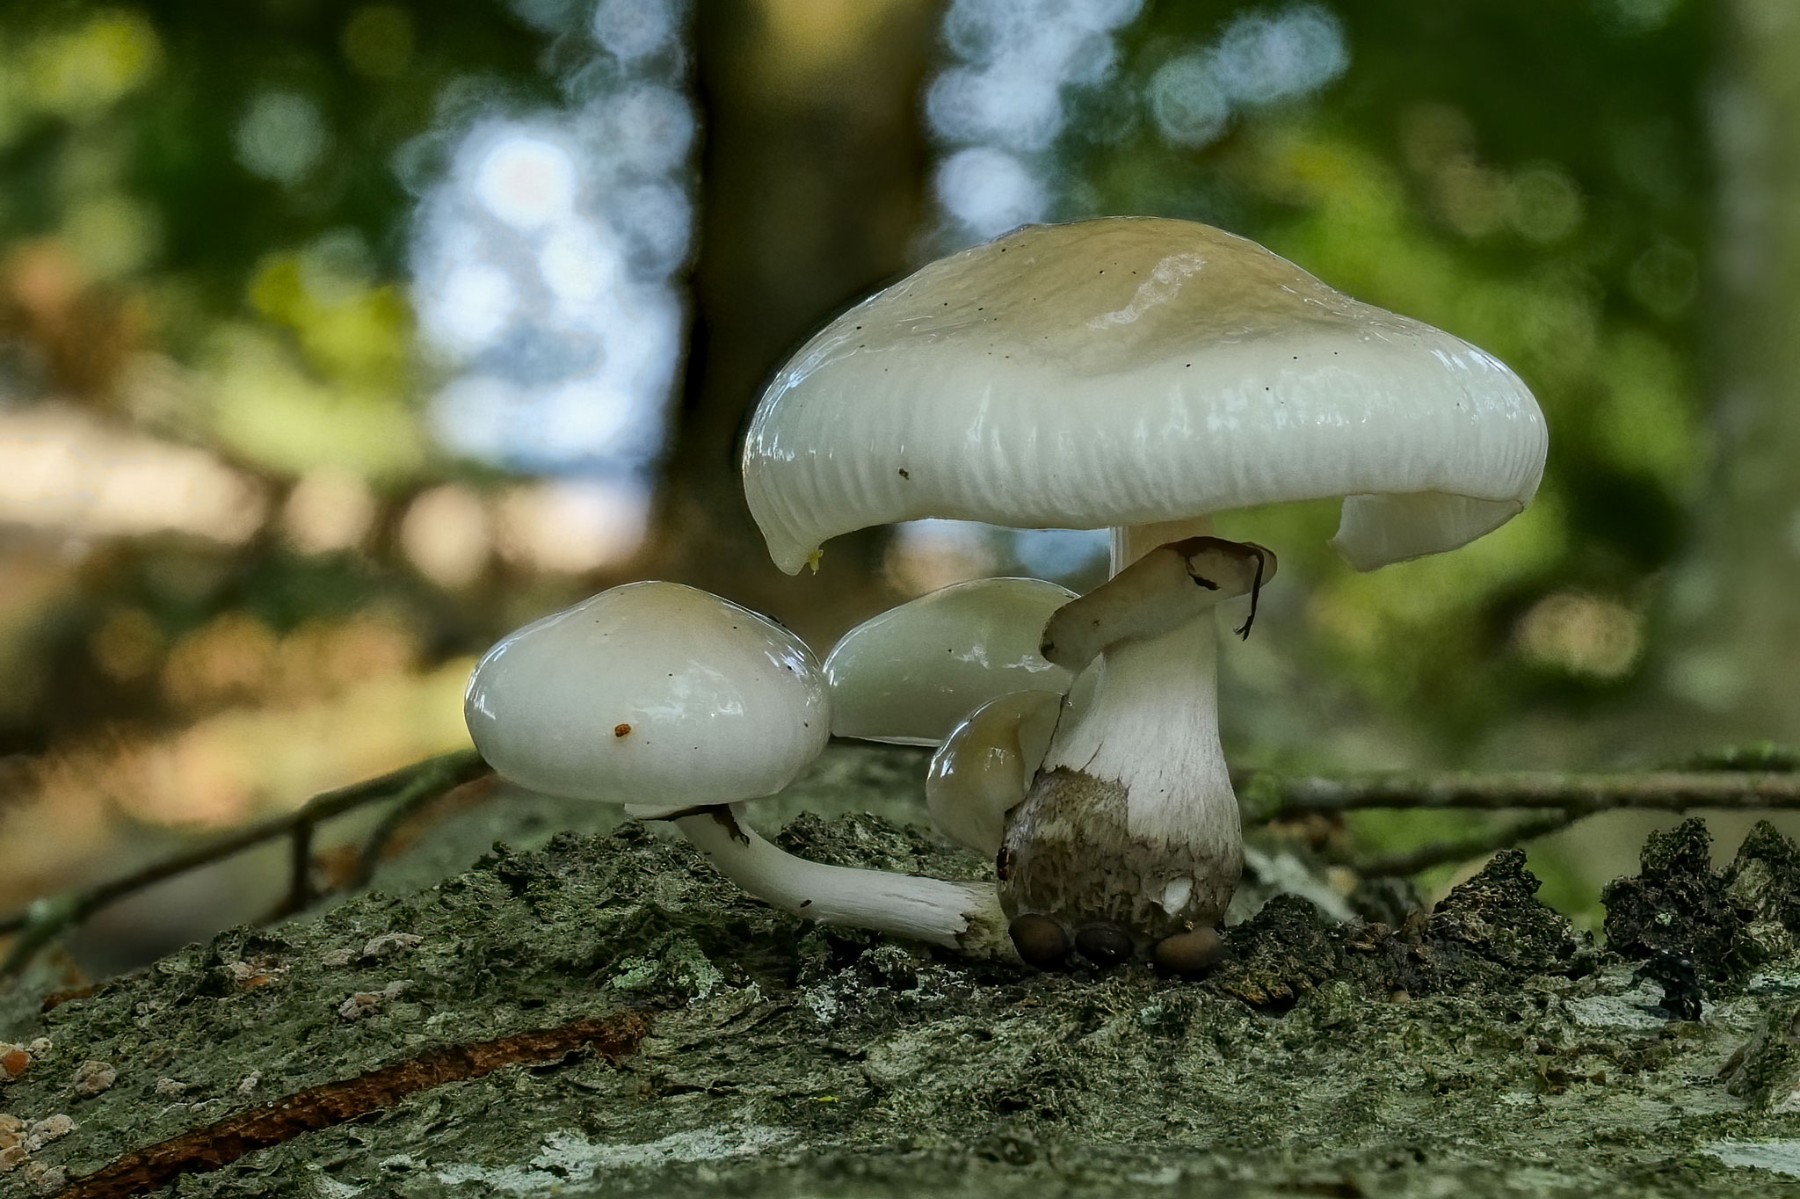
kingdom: Fungi
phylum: Basidiomycota
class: Agaricomycetes
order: Agaricales
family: Physalacriaceae
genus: Mucidula
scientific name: Mucidula mucida
